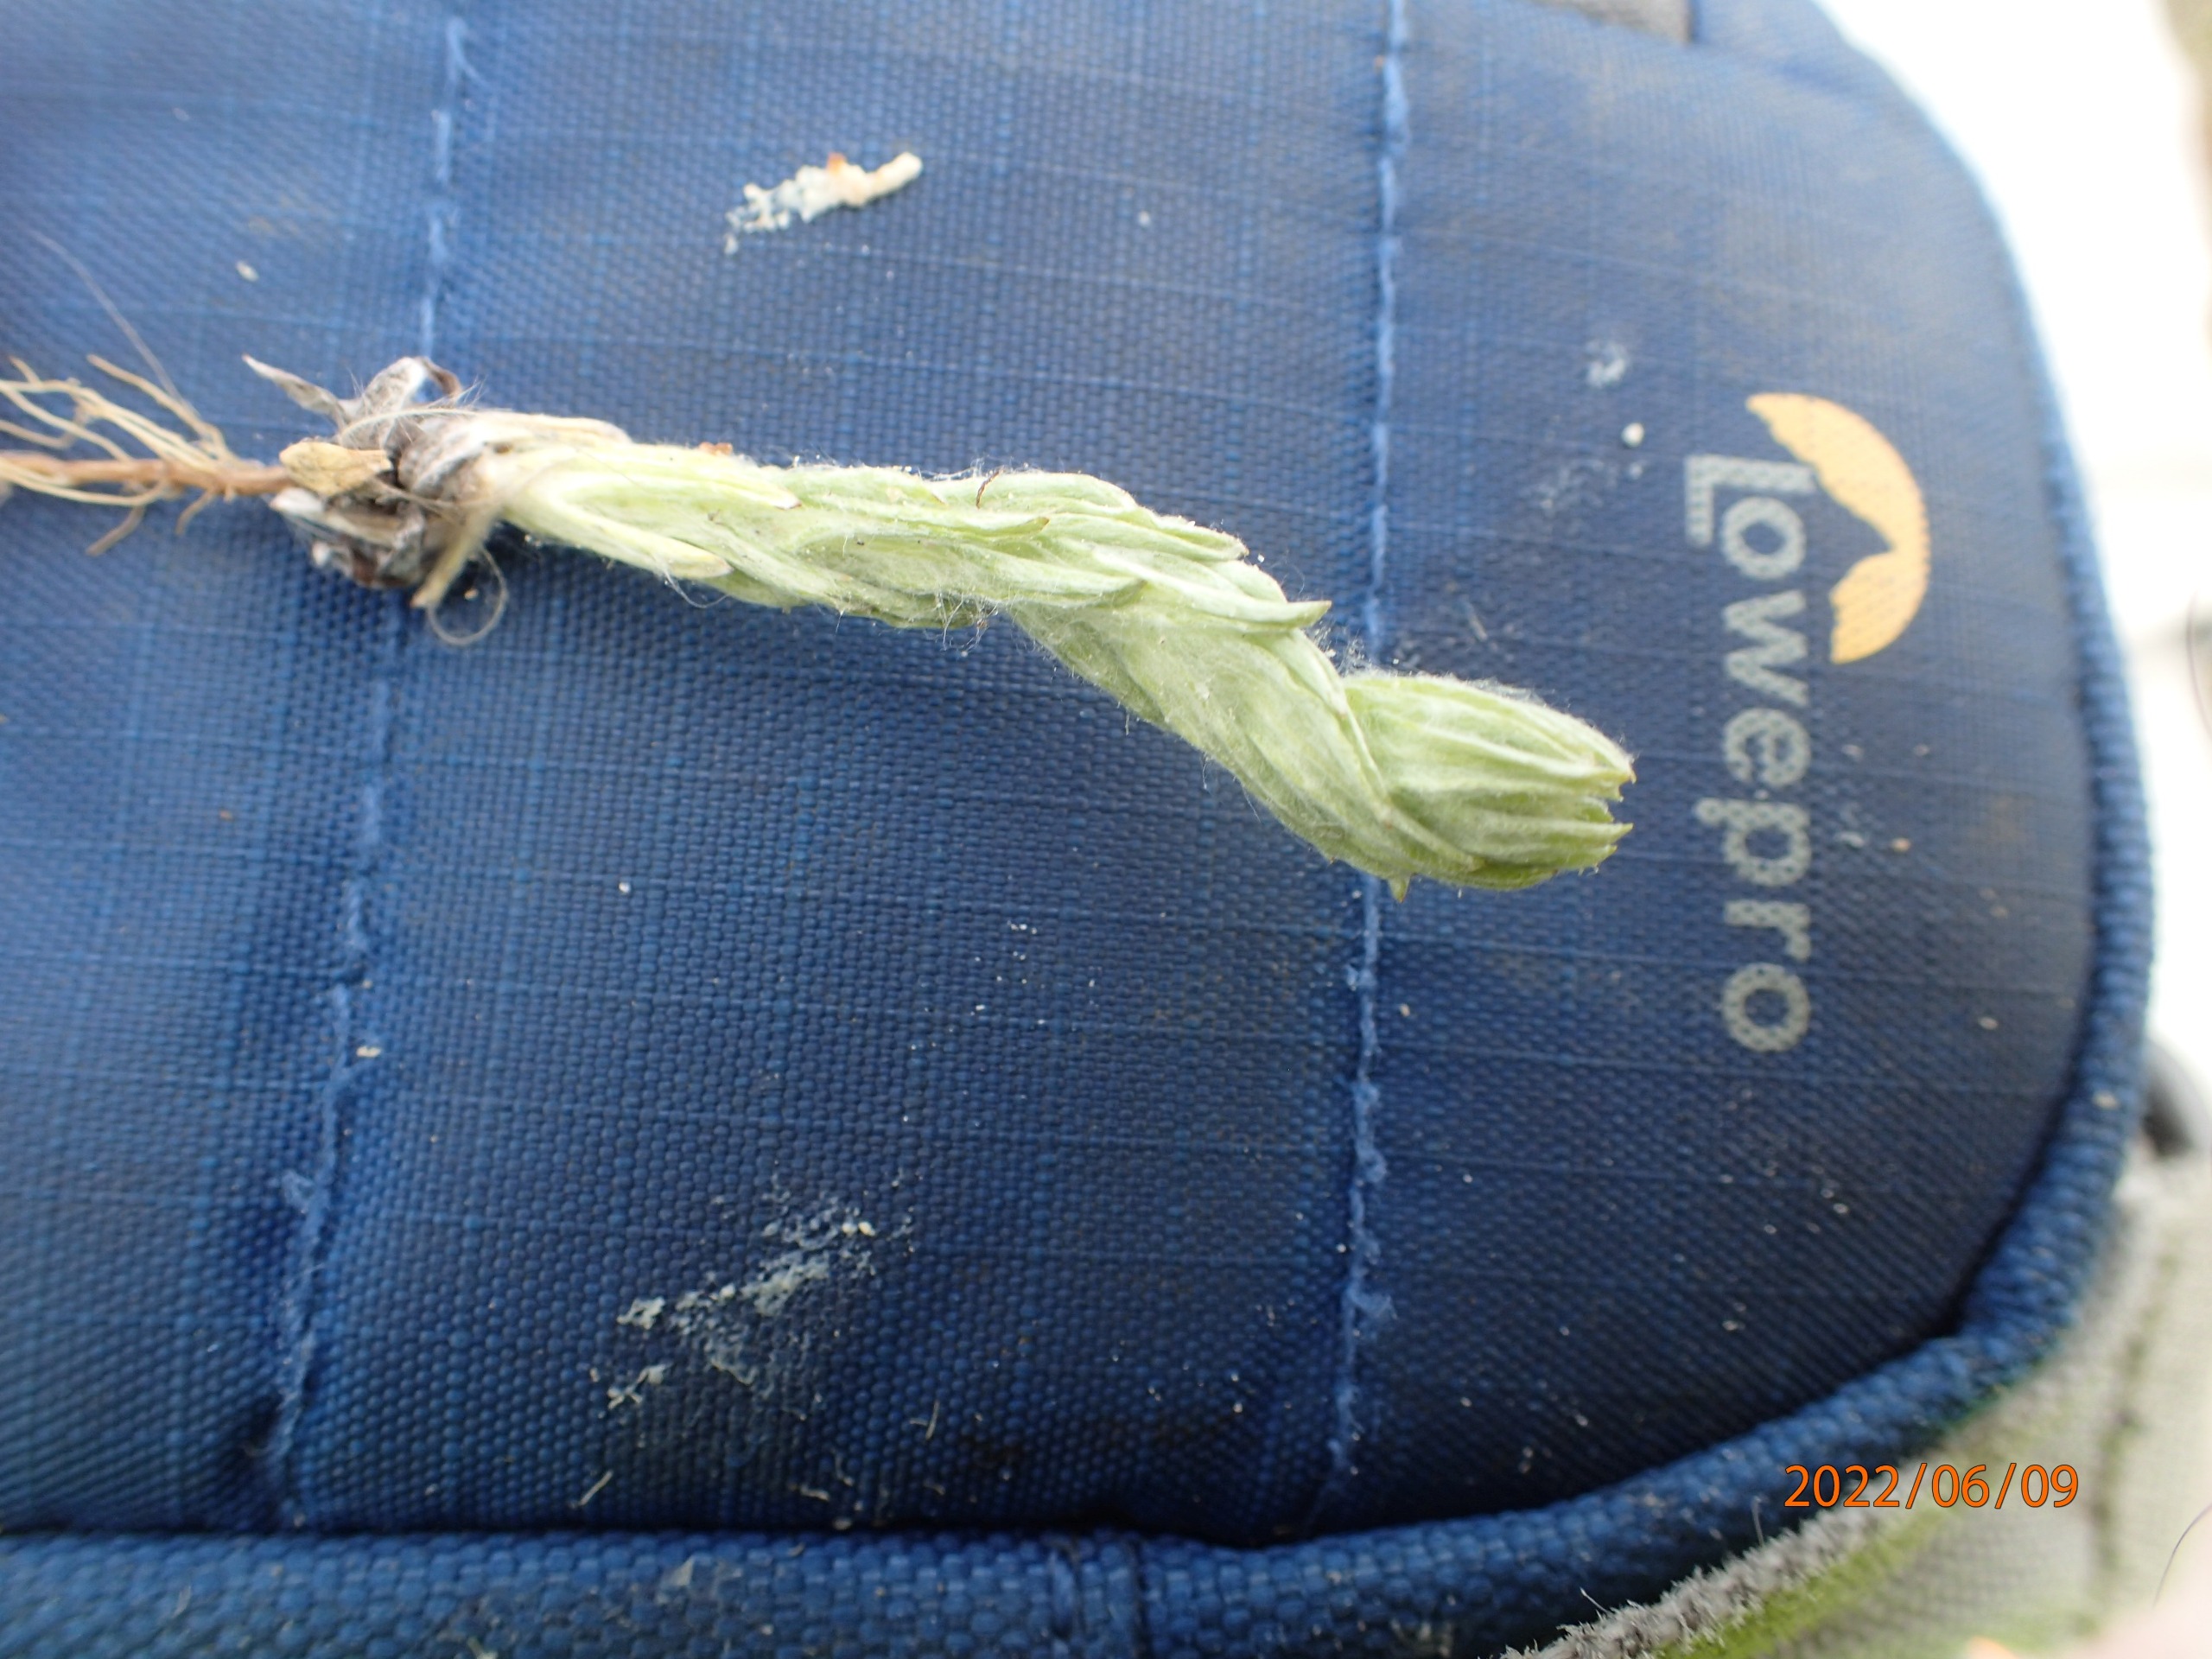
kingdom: Plantae
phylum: Tracheophyta
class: Magnoliopsida
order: Asterales
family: Asteraceae
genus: Filago
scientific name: Filago germanica
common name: Kugle-museurt
